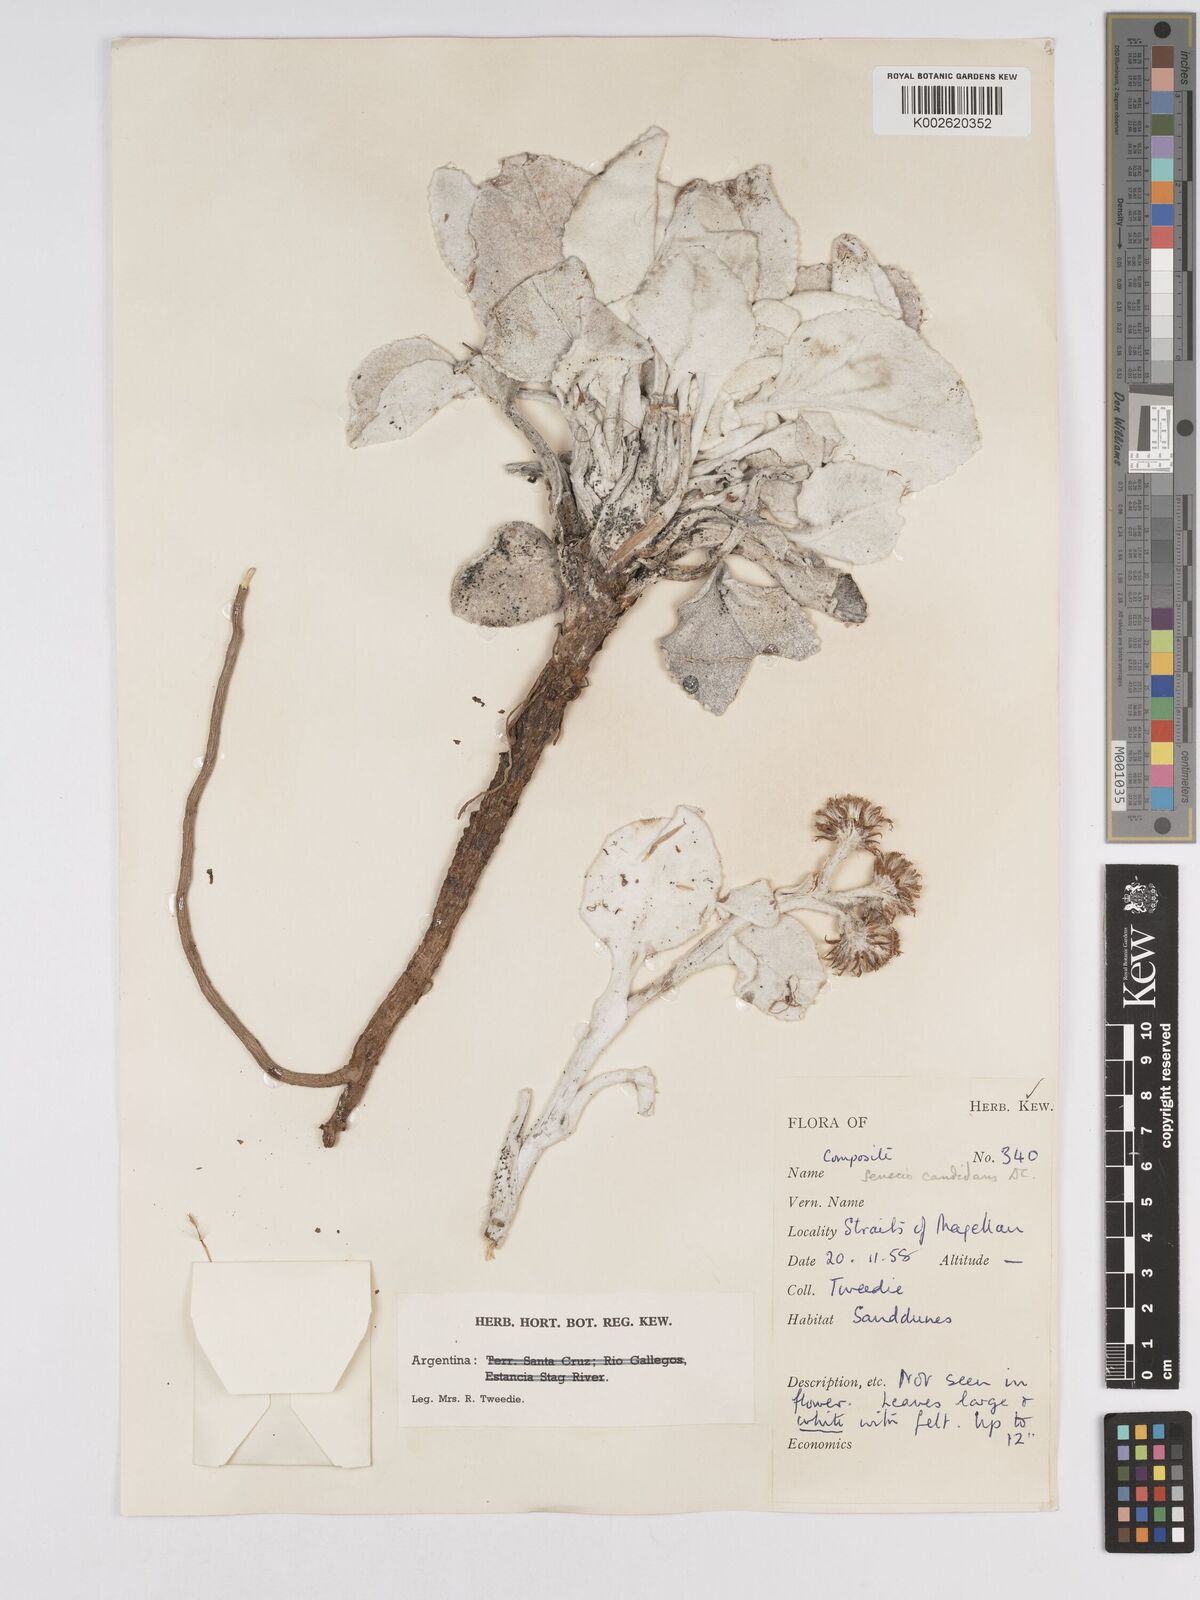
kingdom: Plantae
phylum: Tracheophyta
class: Magnoliopsida
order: Asterales
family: Asteraceae
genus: Senecio
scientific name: Senecio candidans
